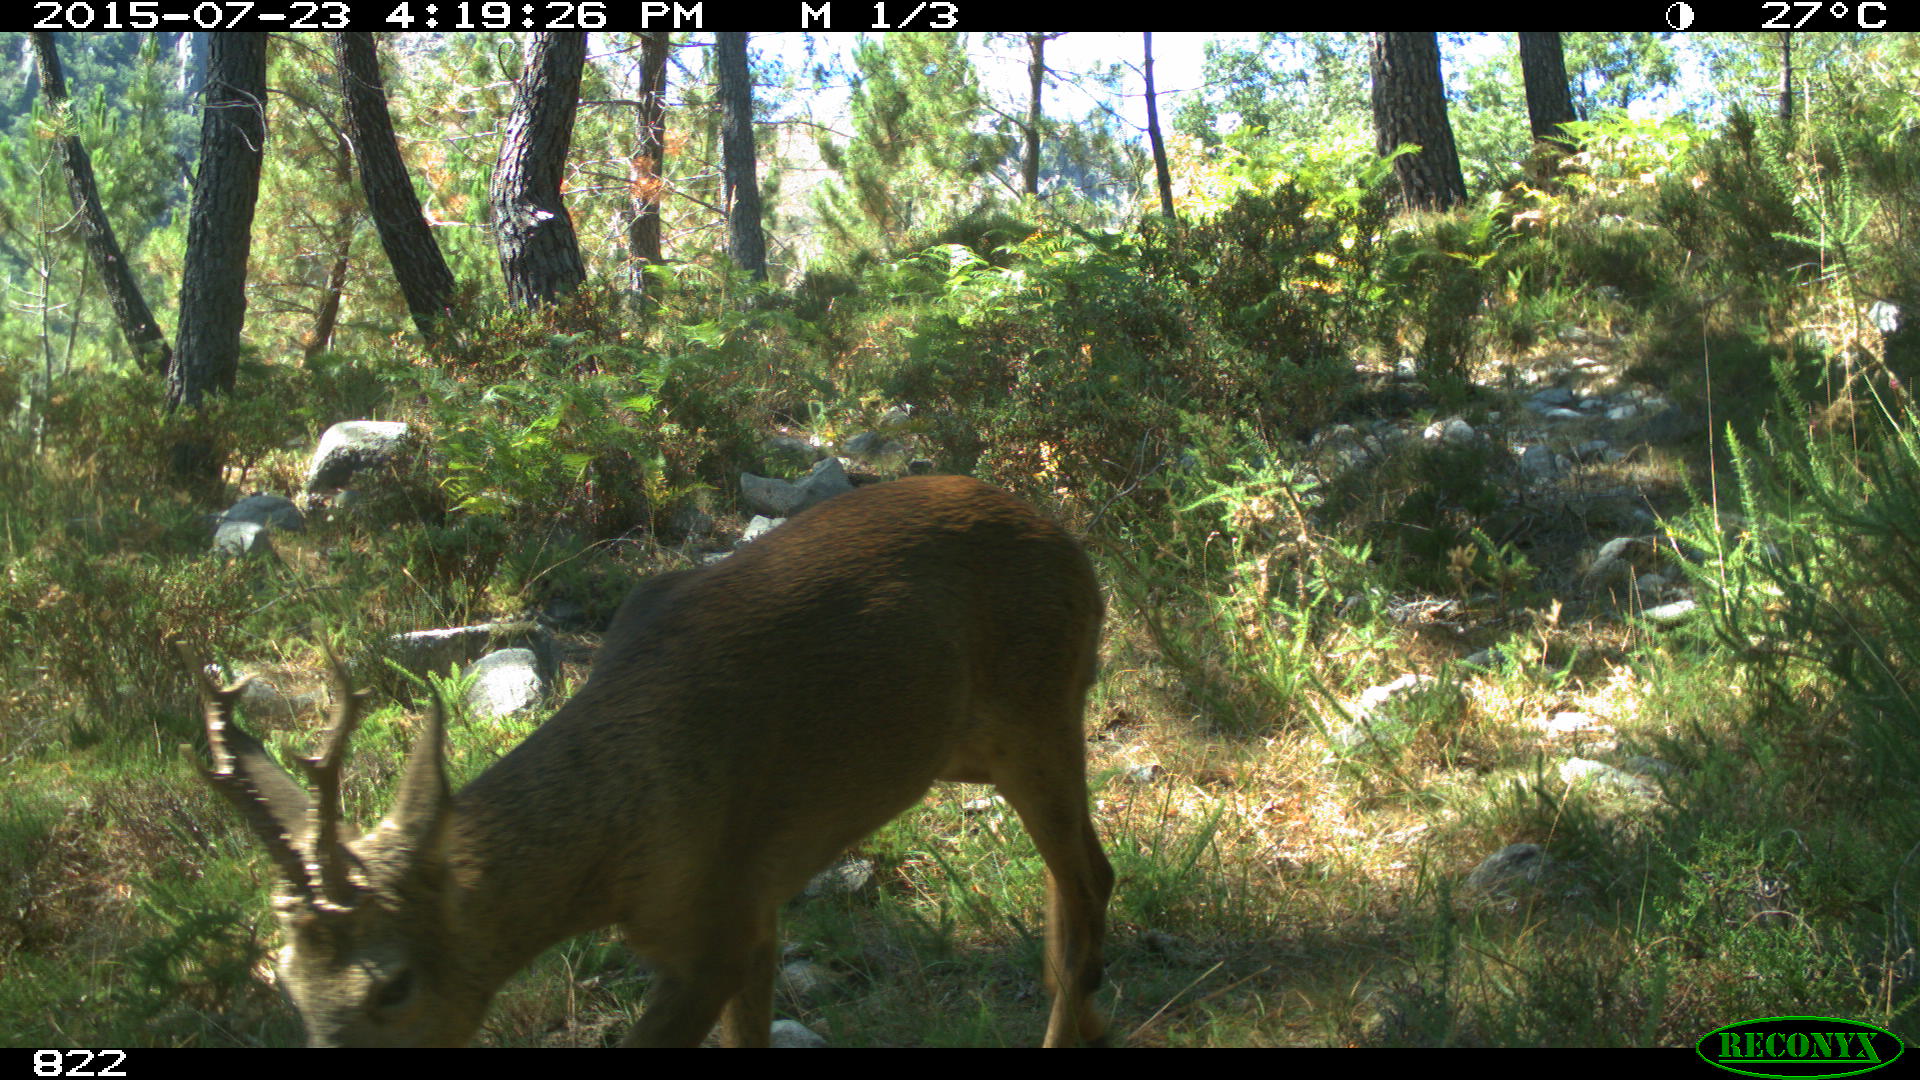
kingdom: Animalia
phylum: Chordata
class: Mammalia
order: Artiodactyla
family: Cervidae
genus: Capreolus
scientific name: Capreolus capreolus
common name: Western roe deer
